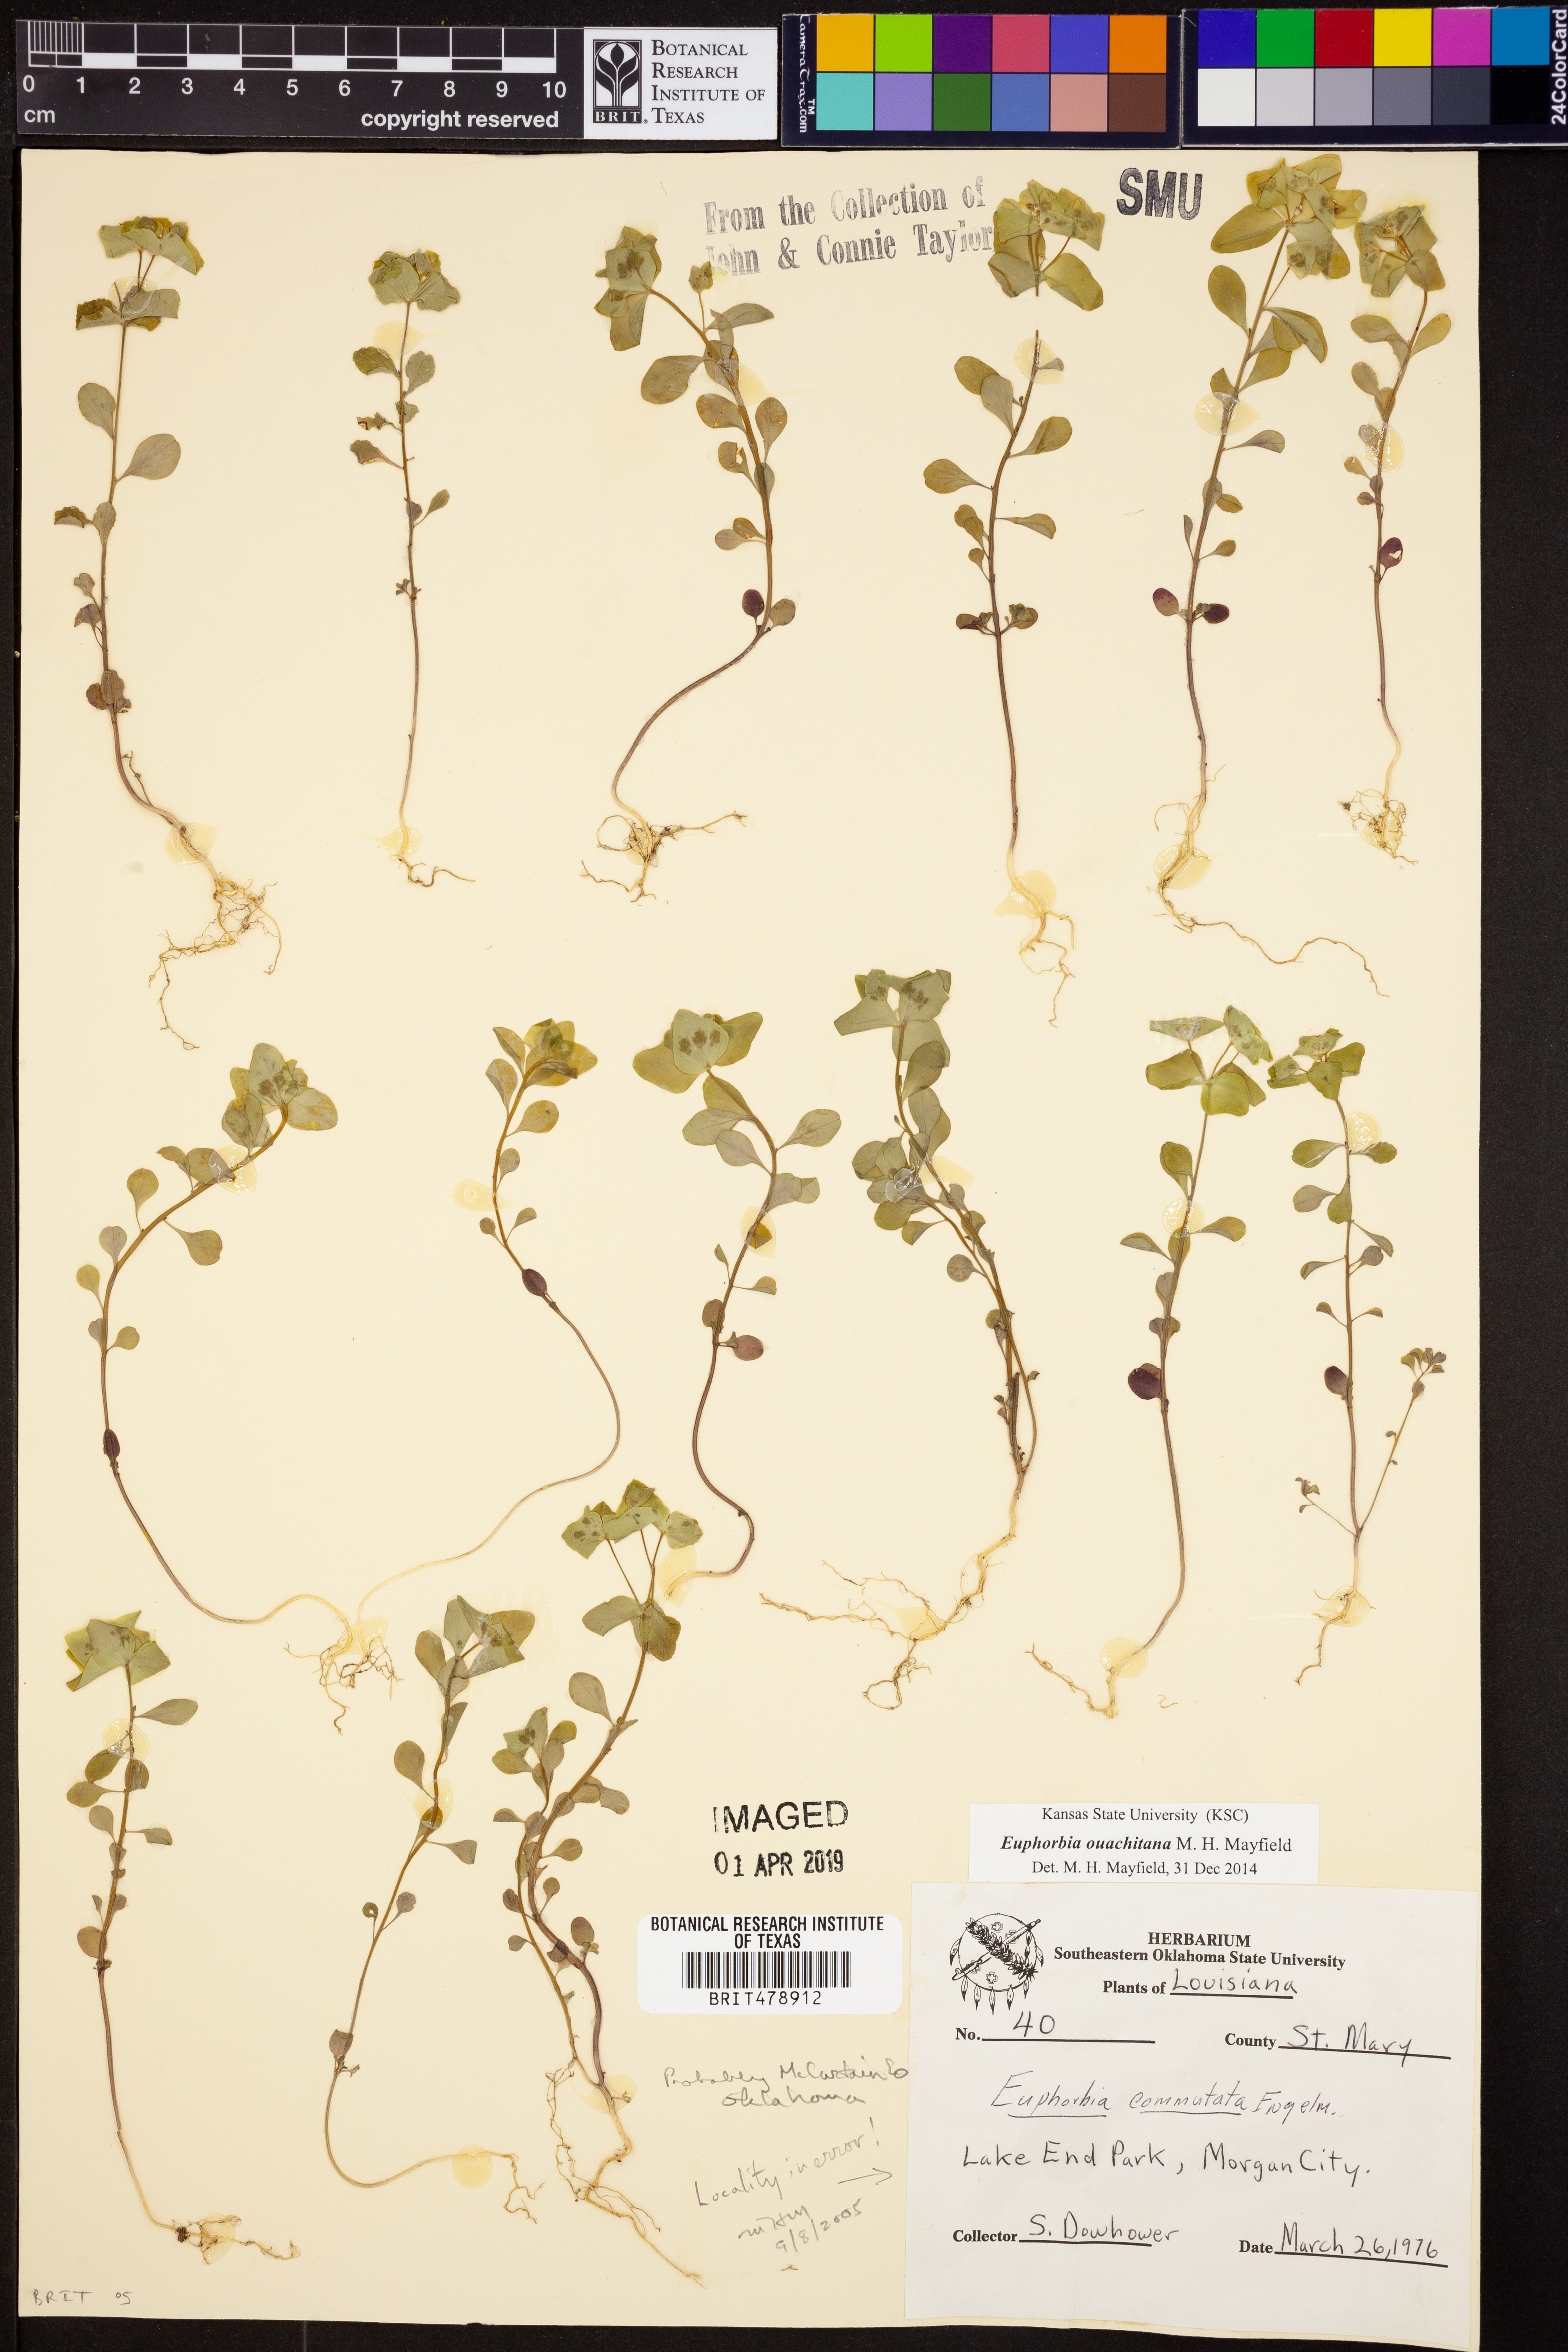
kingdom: Plantae
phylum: Tracheophyta
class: Magnoliopsida
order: Malpighiales
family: Euphorbiaceae
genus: Euphorbia
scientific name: Euphorbia ouachitana
